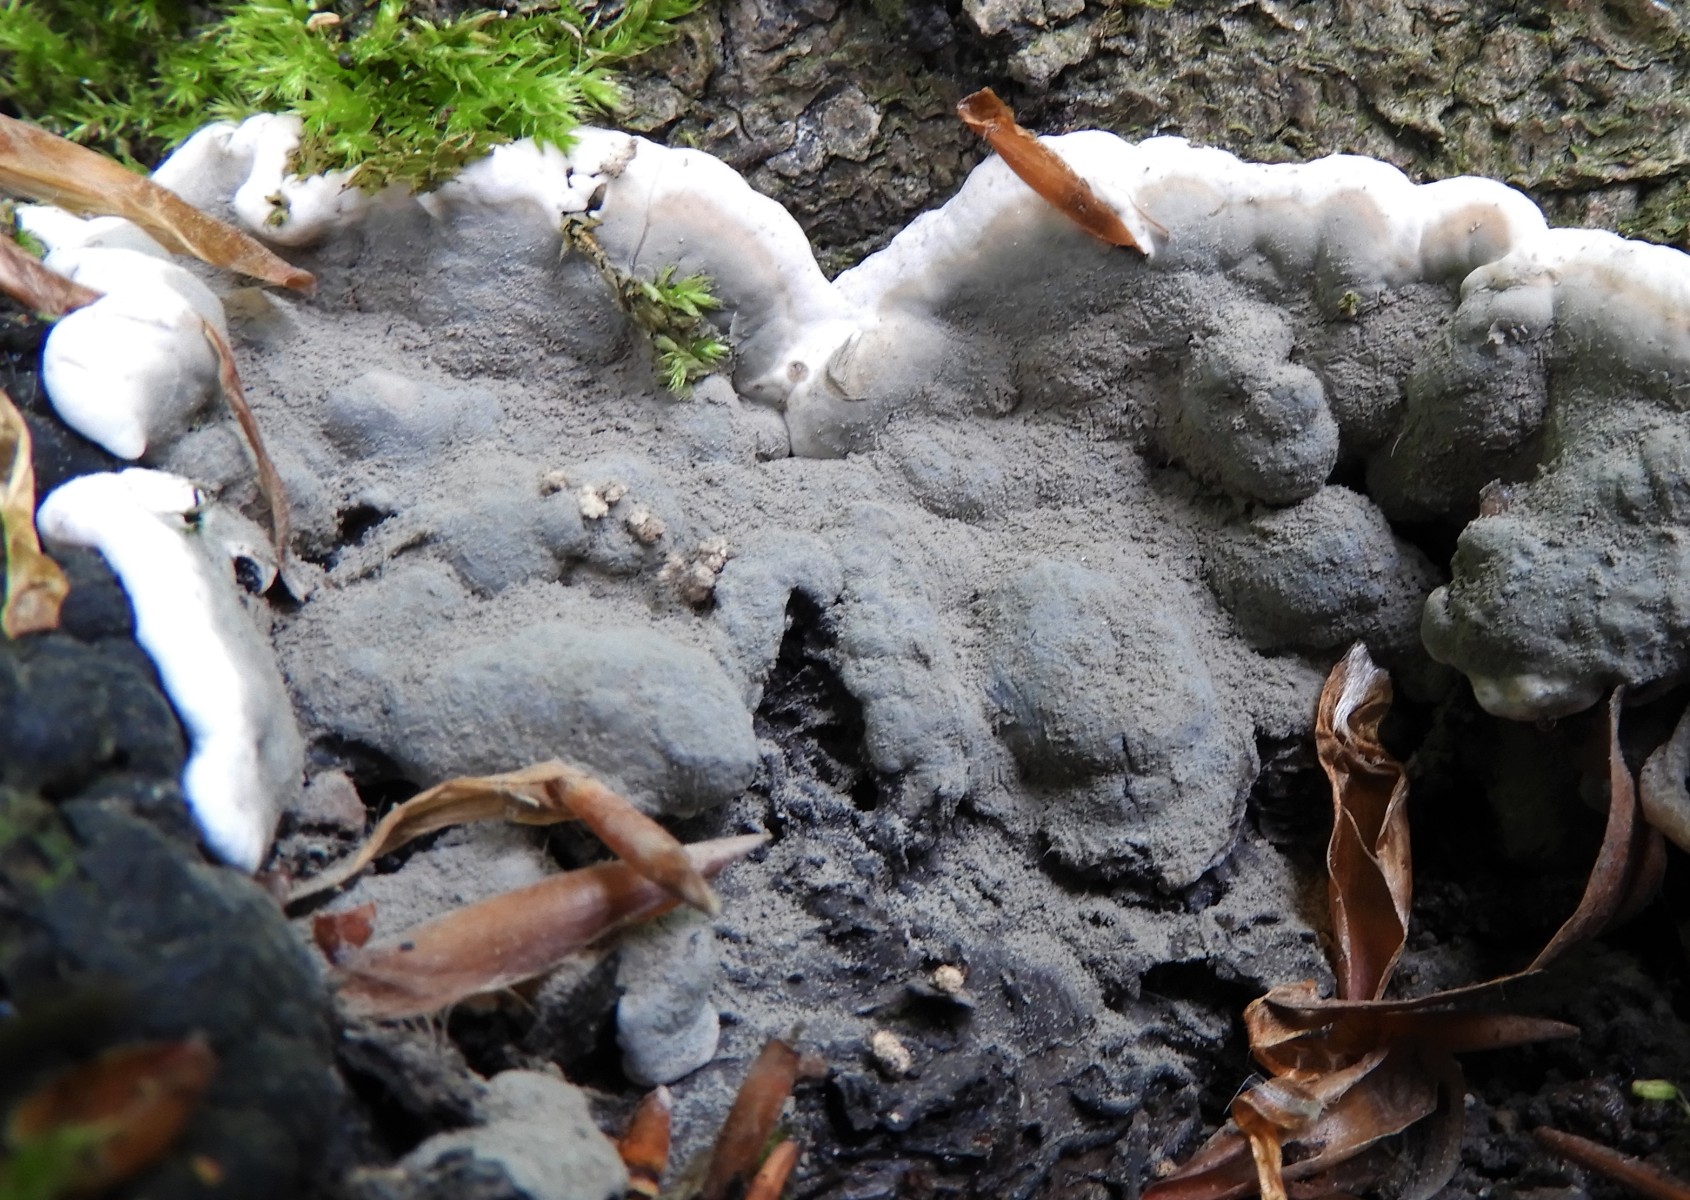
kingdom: Fungi
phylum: Ascomycota
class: Sordariomycetes
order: Xylariales
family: Xylariaceae
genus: Kretzschmaria
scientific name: Kretzschmaria deusta
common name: stor kulsvamp
